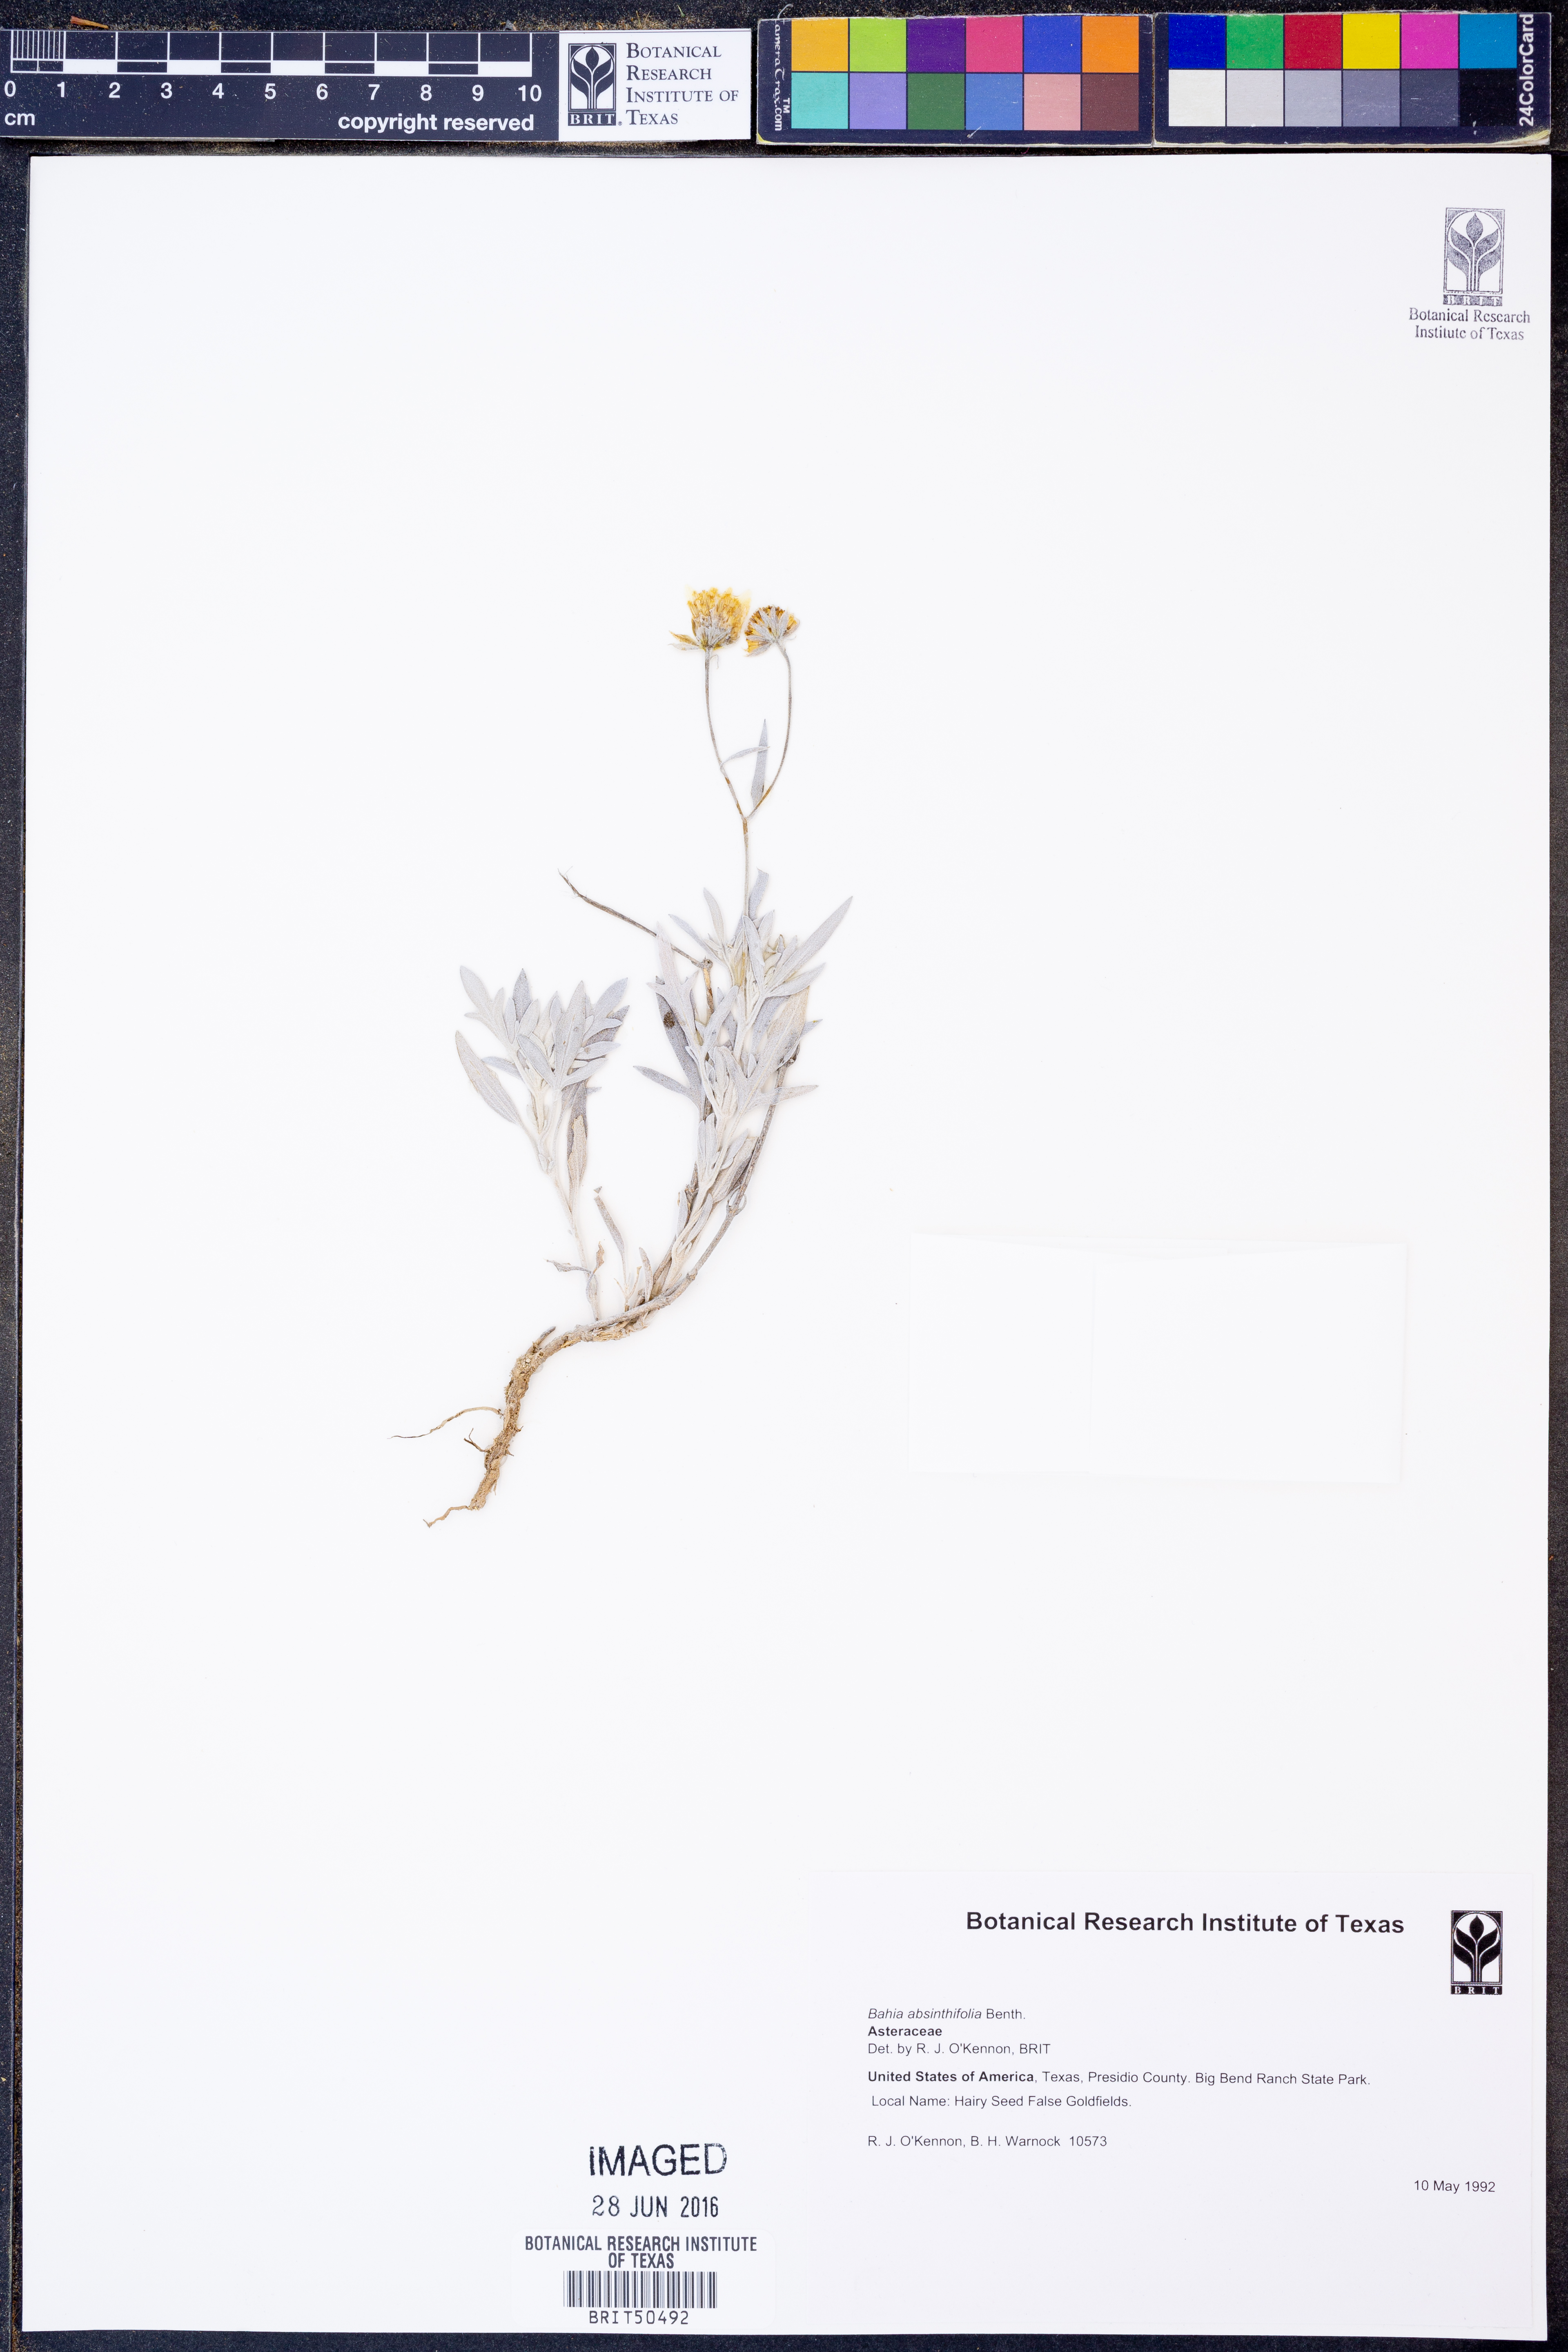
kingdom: Plantae
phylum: Tracheophyta
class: Magnoliopsida
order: Asterales
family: Asteraceae
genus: Picradeniopsis
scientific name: Picradeniopsis absinthifolia
